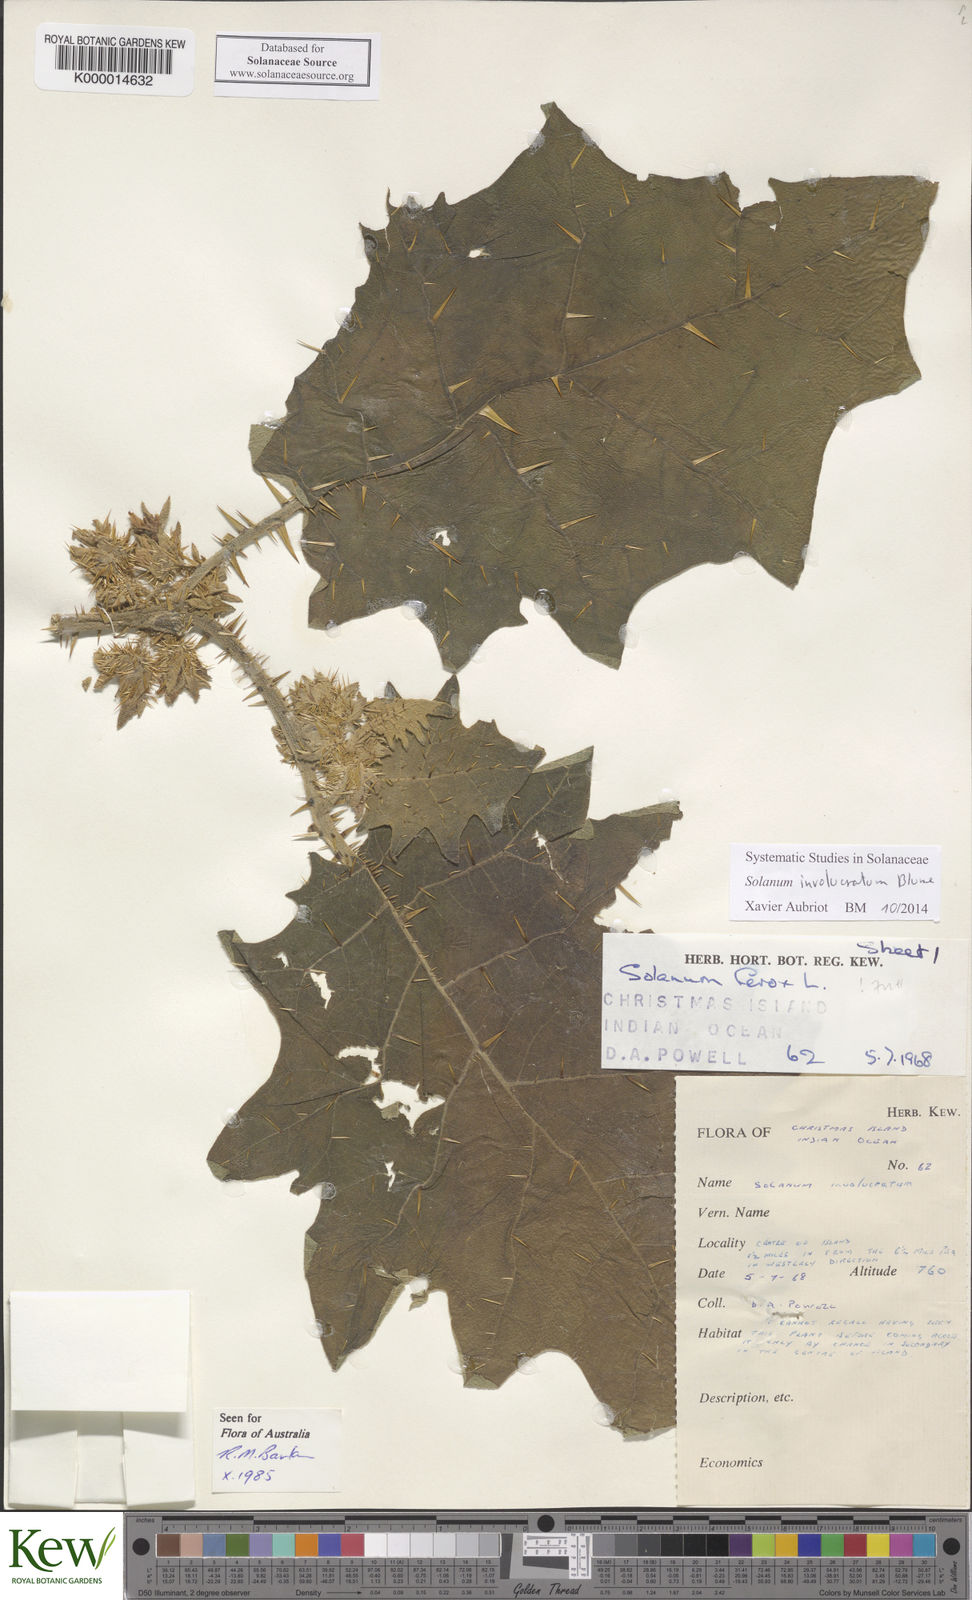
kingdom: Plantae
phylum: Tracheophyta
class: Magnoliopsida
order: Solanales
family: Solanaceae
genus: Solanum
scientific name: Solanum involucratum
